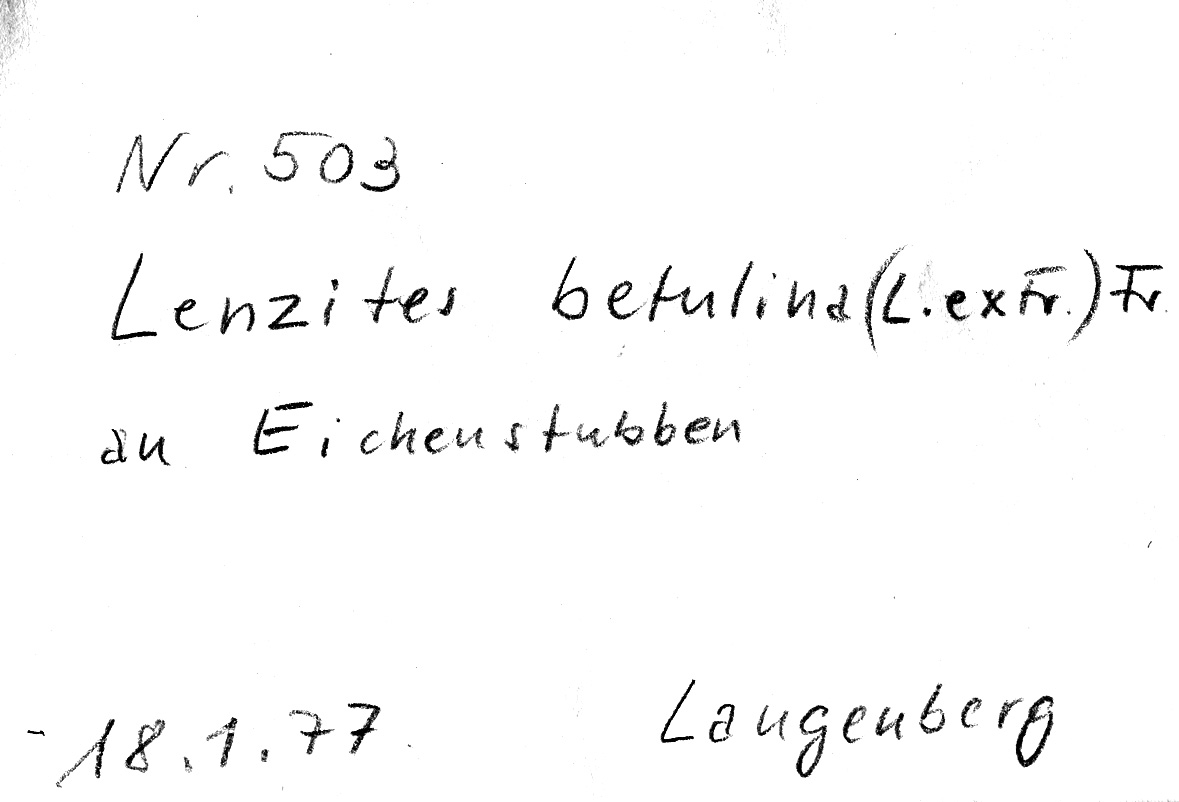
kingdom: Fungi
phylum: Basidiomycota
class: Agaricomycetes
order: Polyporales
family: Polyporaceae
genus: Lenzites
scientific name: Lenzites betulinus
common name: Birch mazegill
